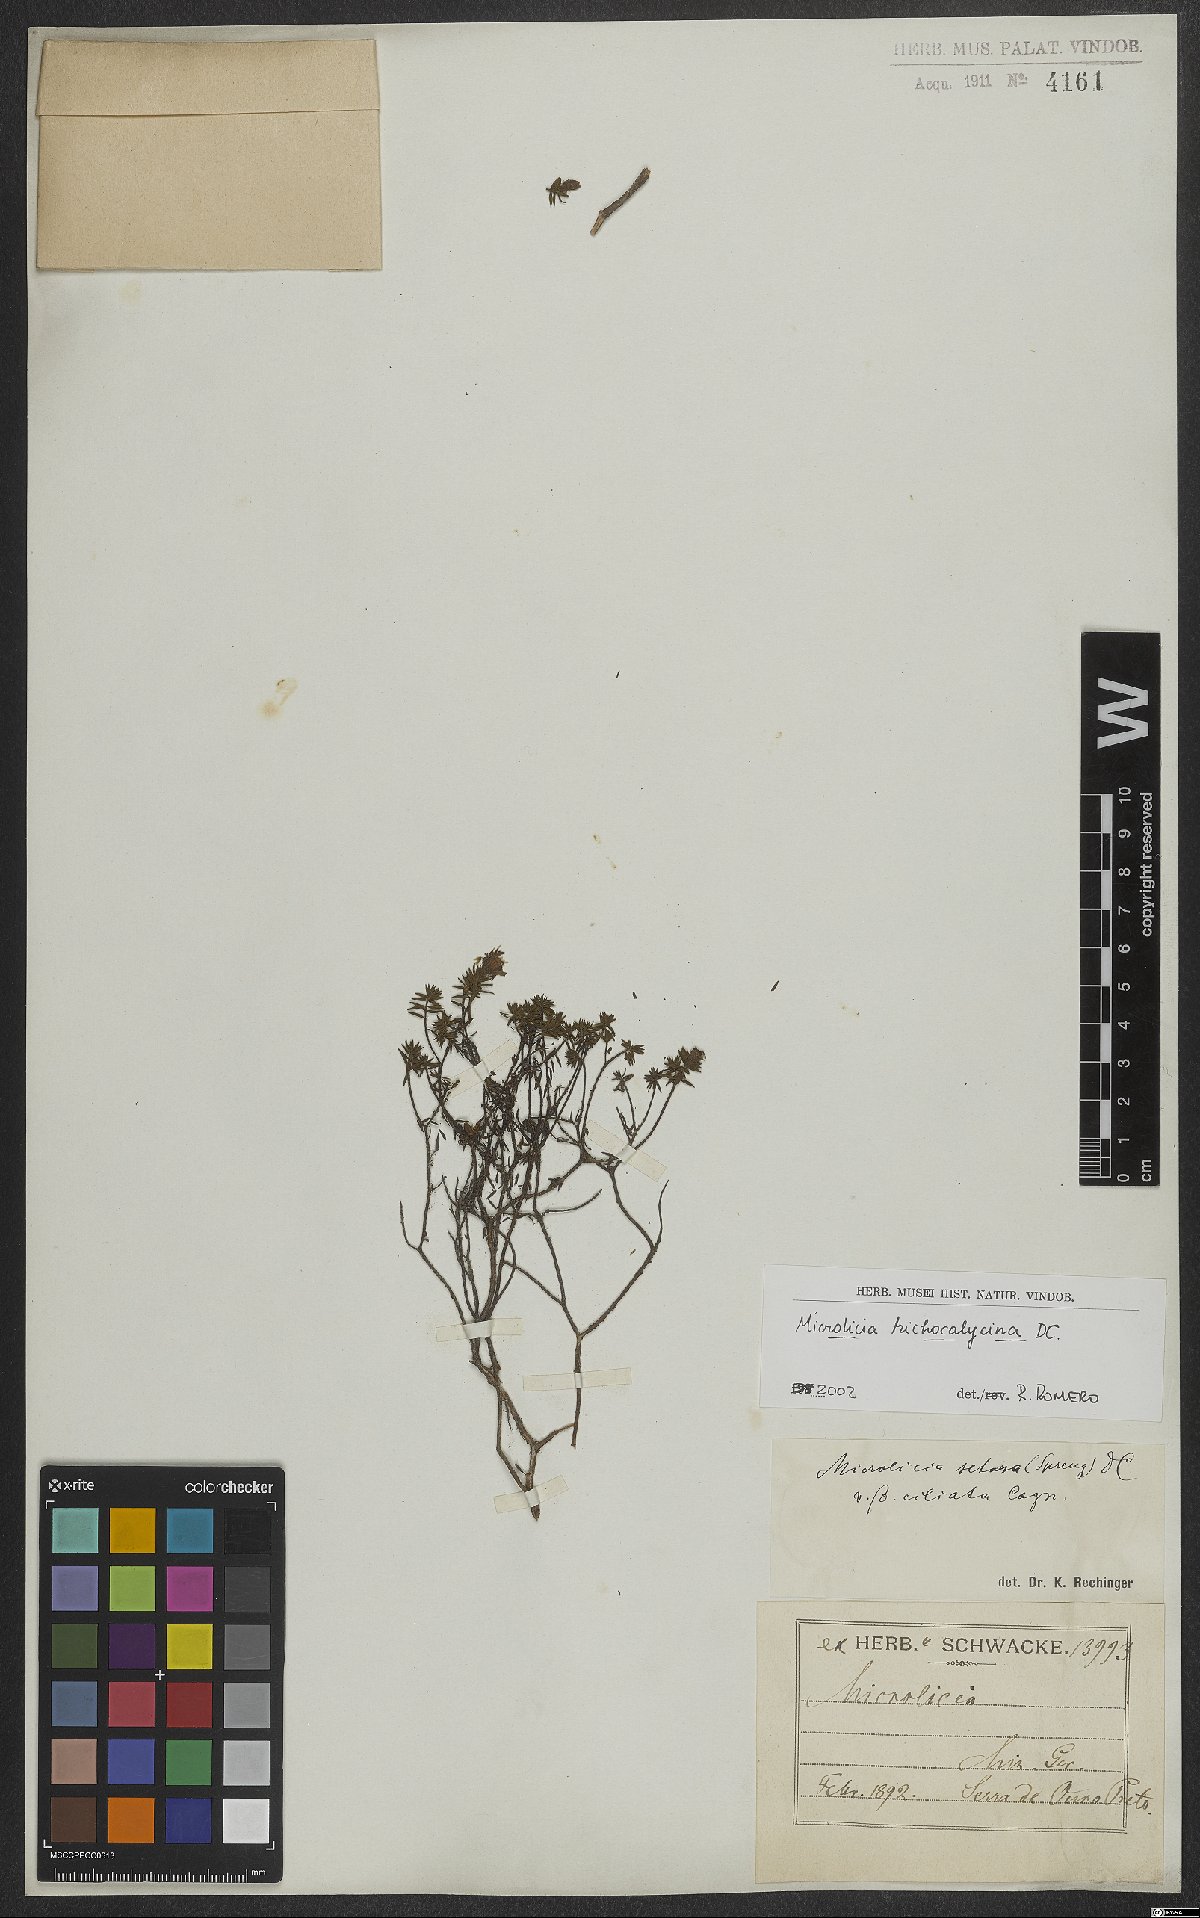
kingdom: Plantae
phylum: Tracheophyta
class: Magnoliopsida
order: Myrtales
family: Melastomataceae
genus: Microlicia
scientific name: Microlicia trichocalycina
